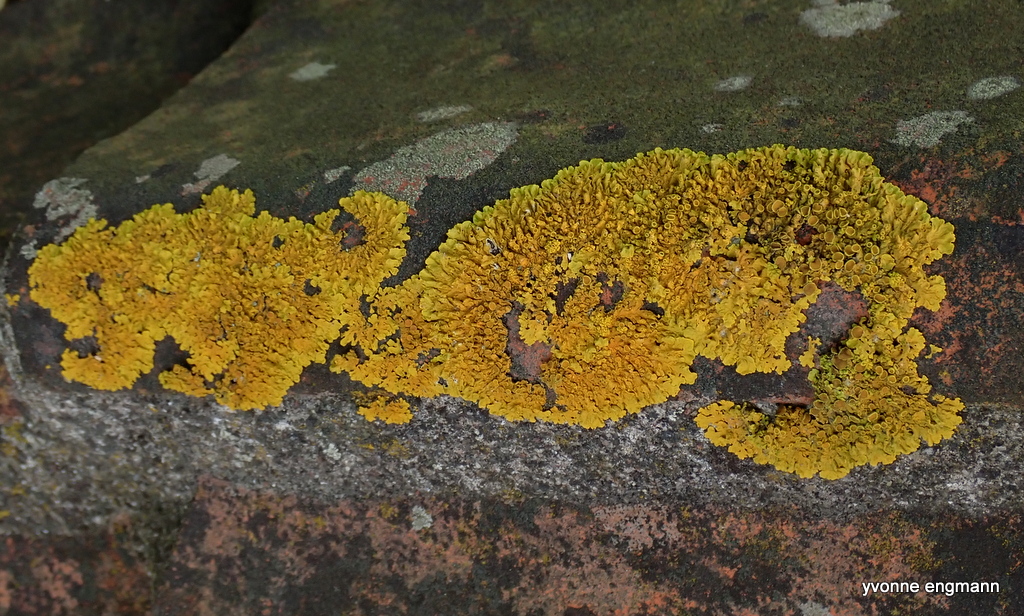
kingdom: Fungi
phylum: Ascomycota
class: Lecanoromycetes
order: Teloschistales
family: Teloschistaceae
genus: Xanthoria
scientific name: Xanthoria parietina
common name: almindelig væggelav
